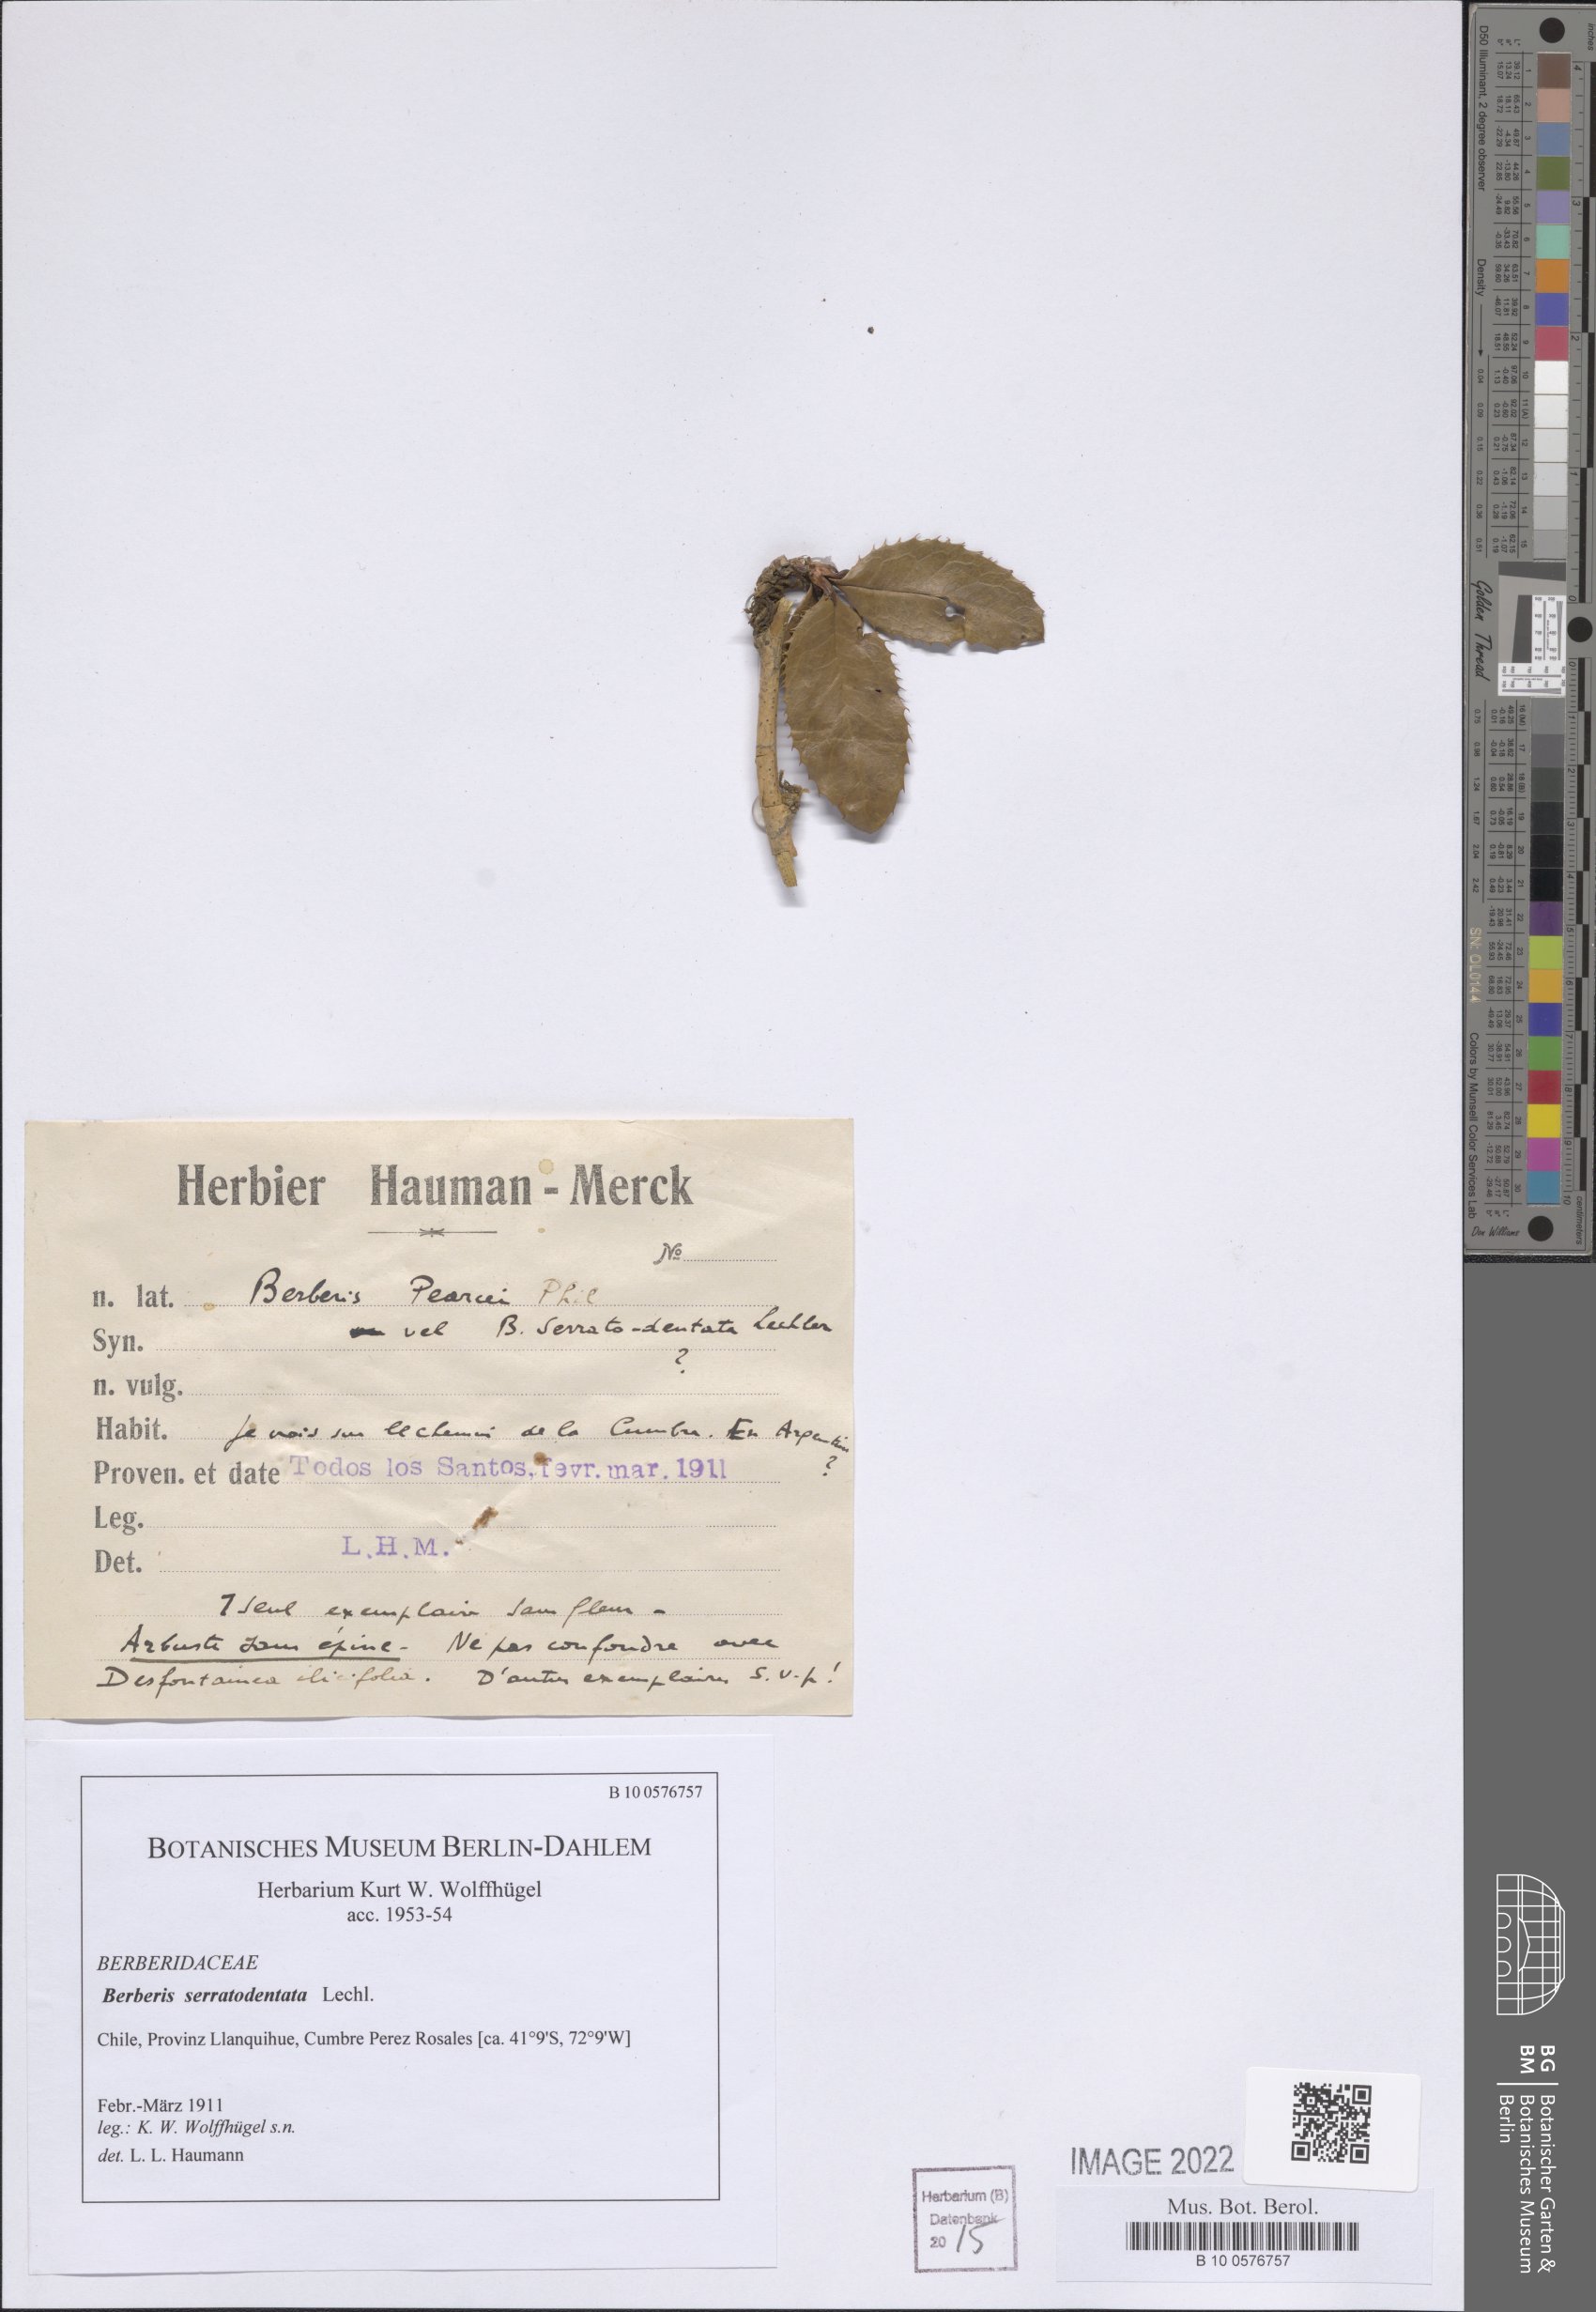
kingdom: Plantae
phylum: Tracheophyta
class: Magnoliopsida
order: Ranunculales
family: Berberidaceae
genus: Berberis
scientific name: Berberis serratodentata
